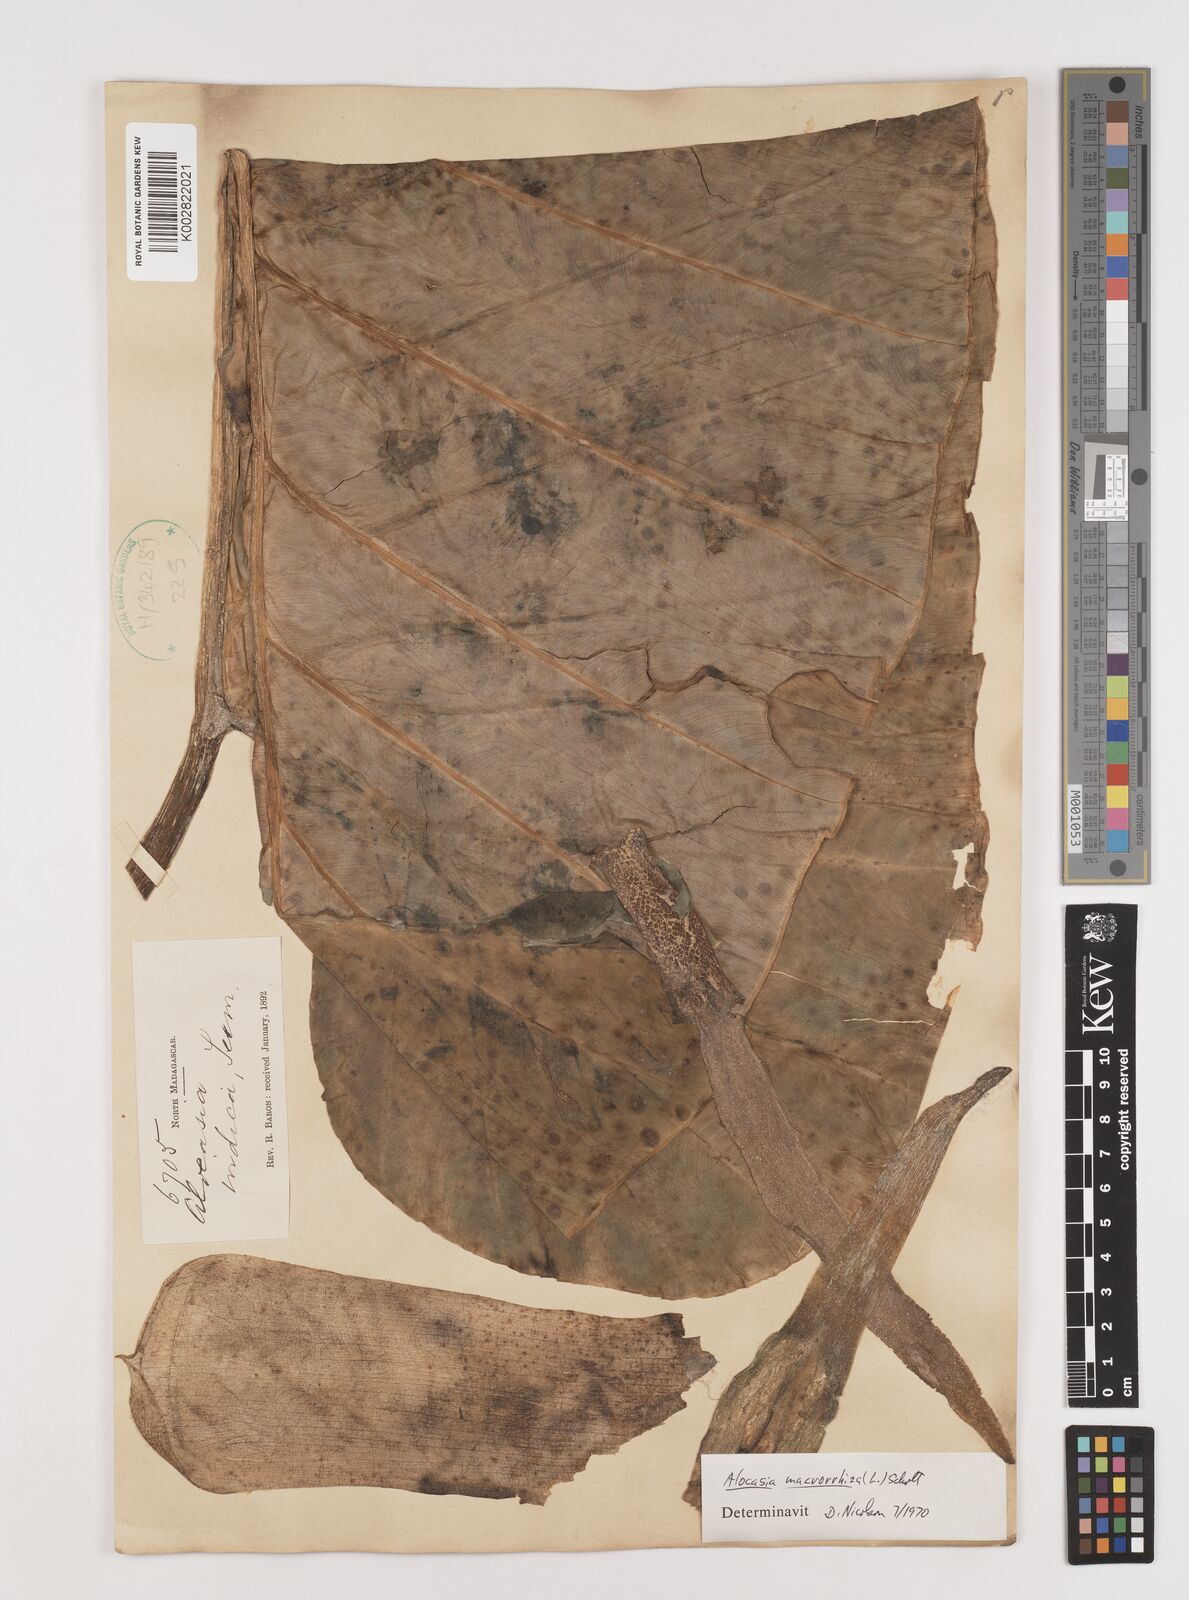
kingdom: Plantae
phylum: Tracheophyta
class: Liliopsida
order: Alismatales
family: Araceae
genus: Alocasia
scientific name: Alocasia macrorrhizos
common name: Giant taro
